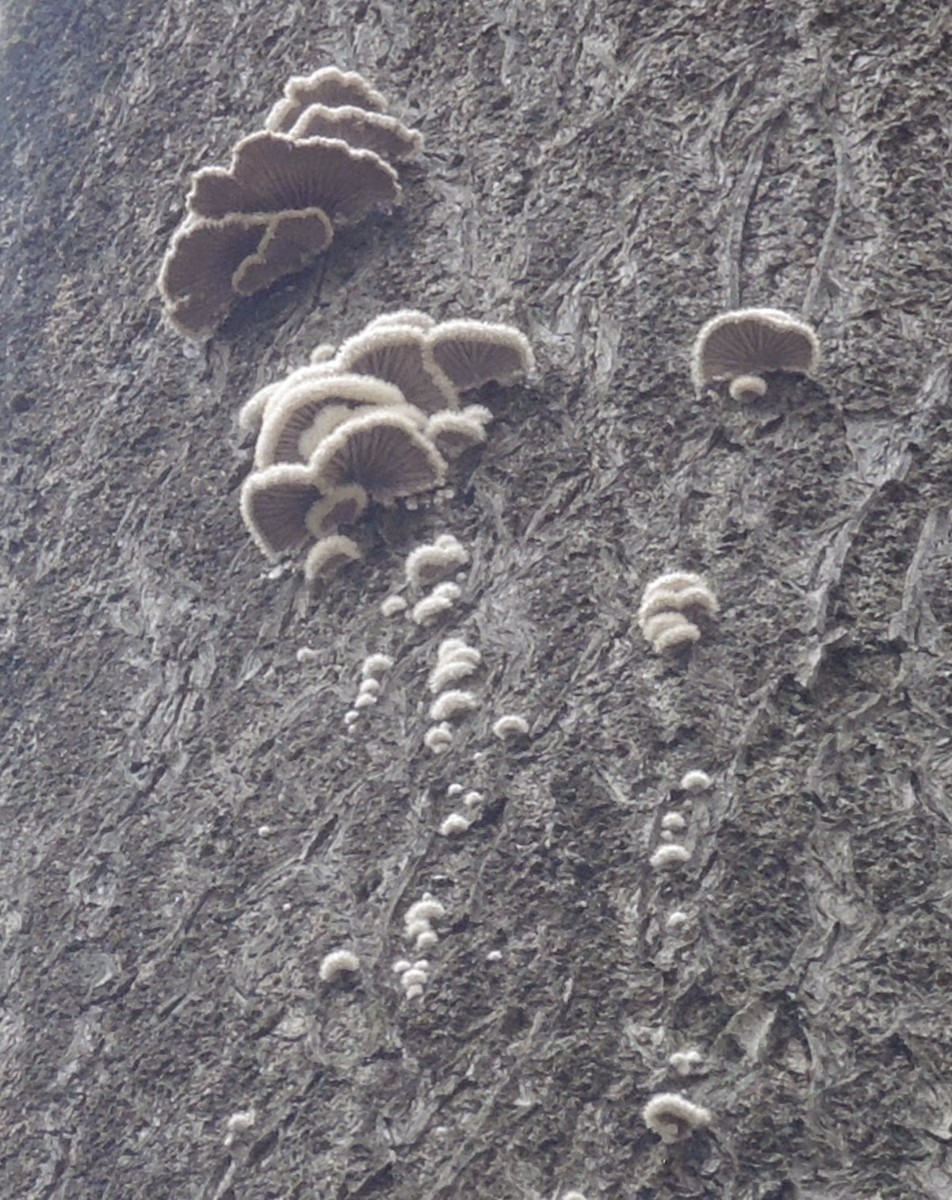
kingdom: Fungi
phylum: Basidiomycota
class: Agaricomycetes
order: Agaricales
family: Schizophyllaceae
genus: Schizophyllum
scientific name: Schizophyllum commune
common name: kløvblad
